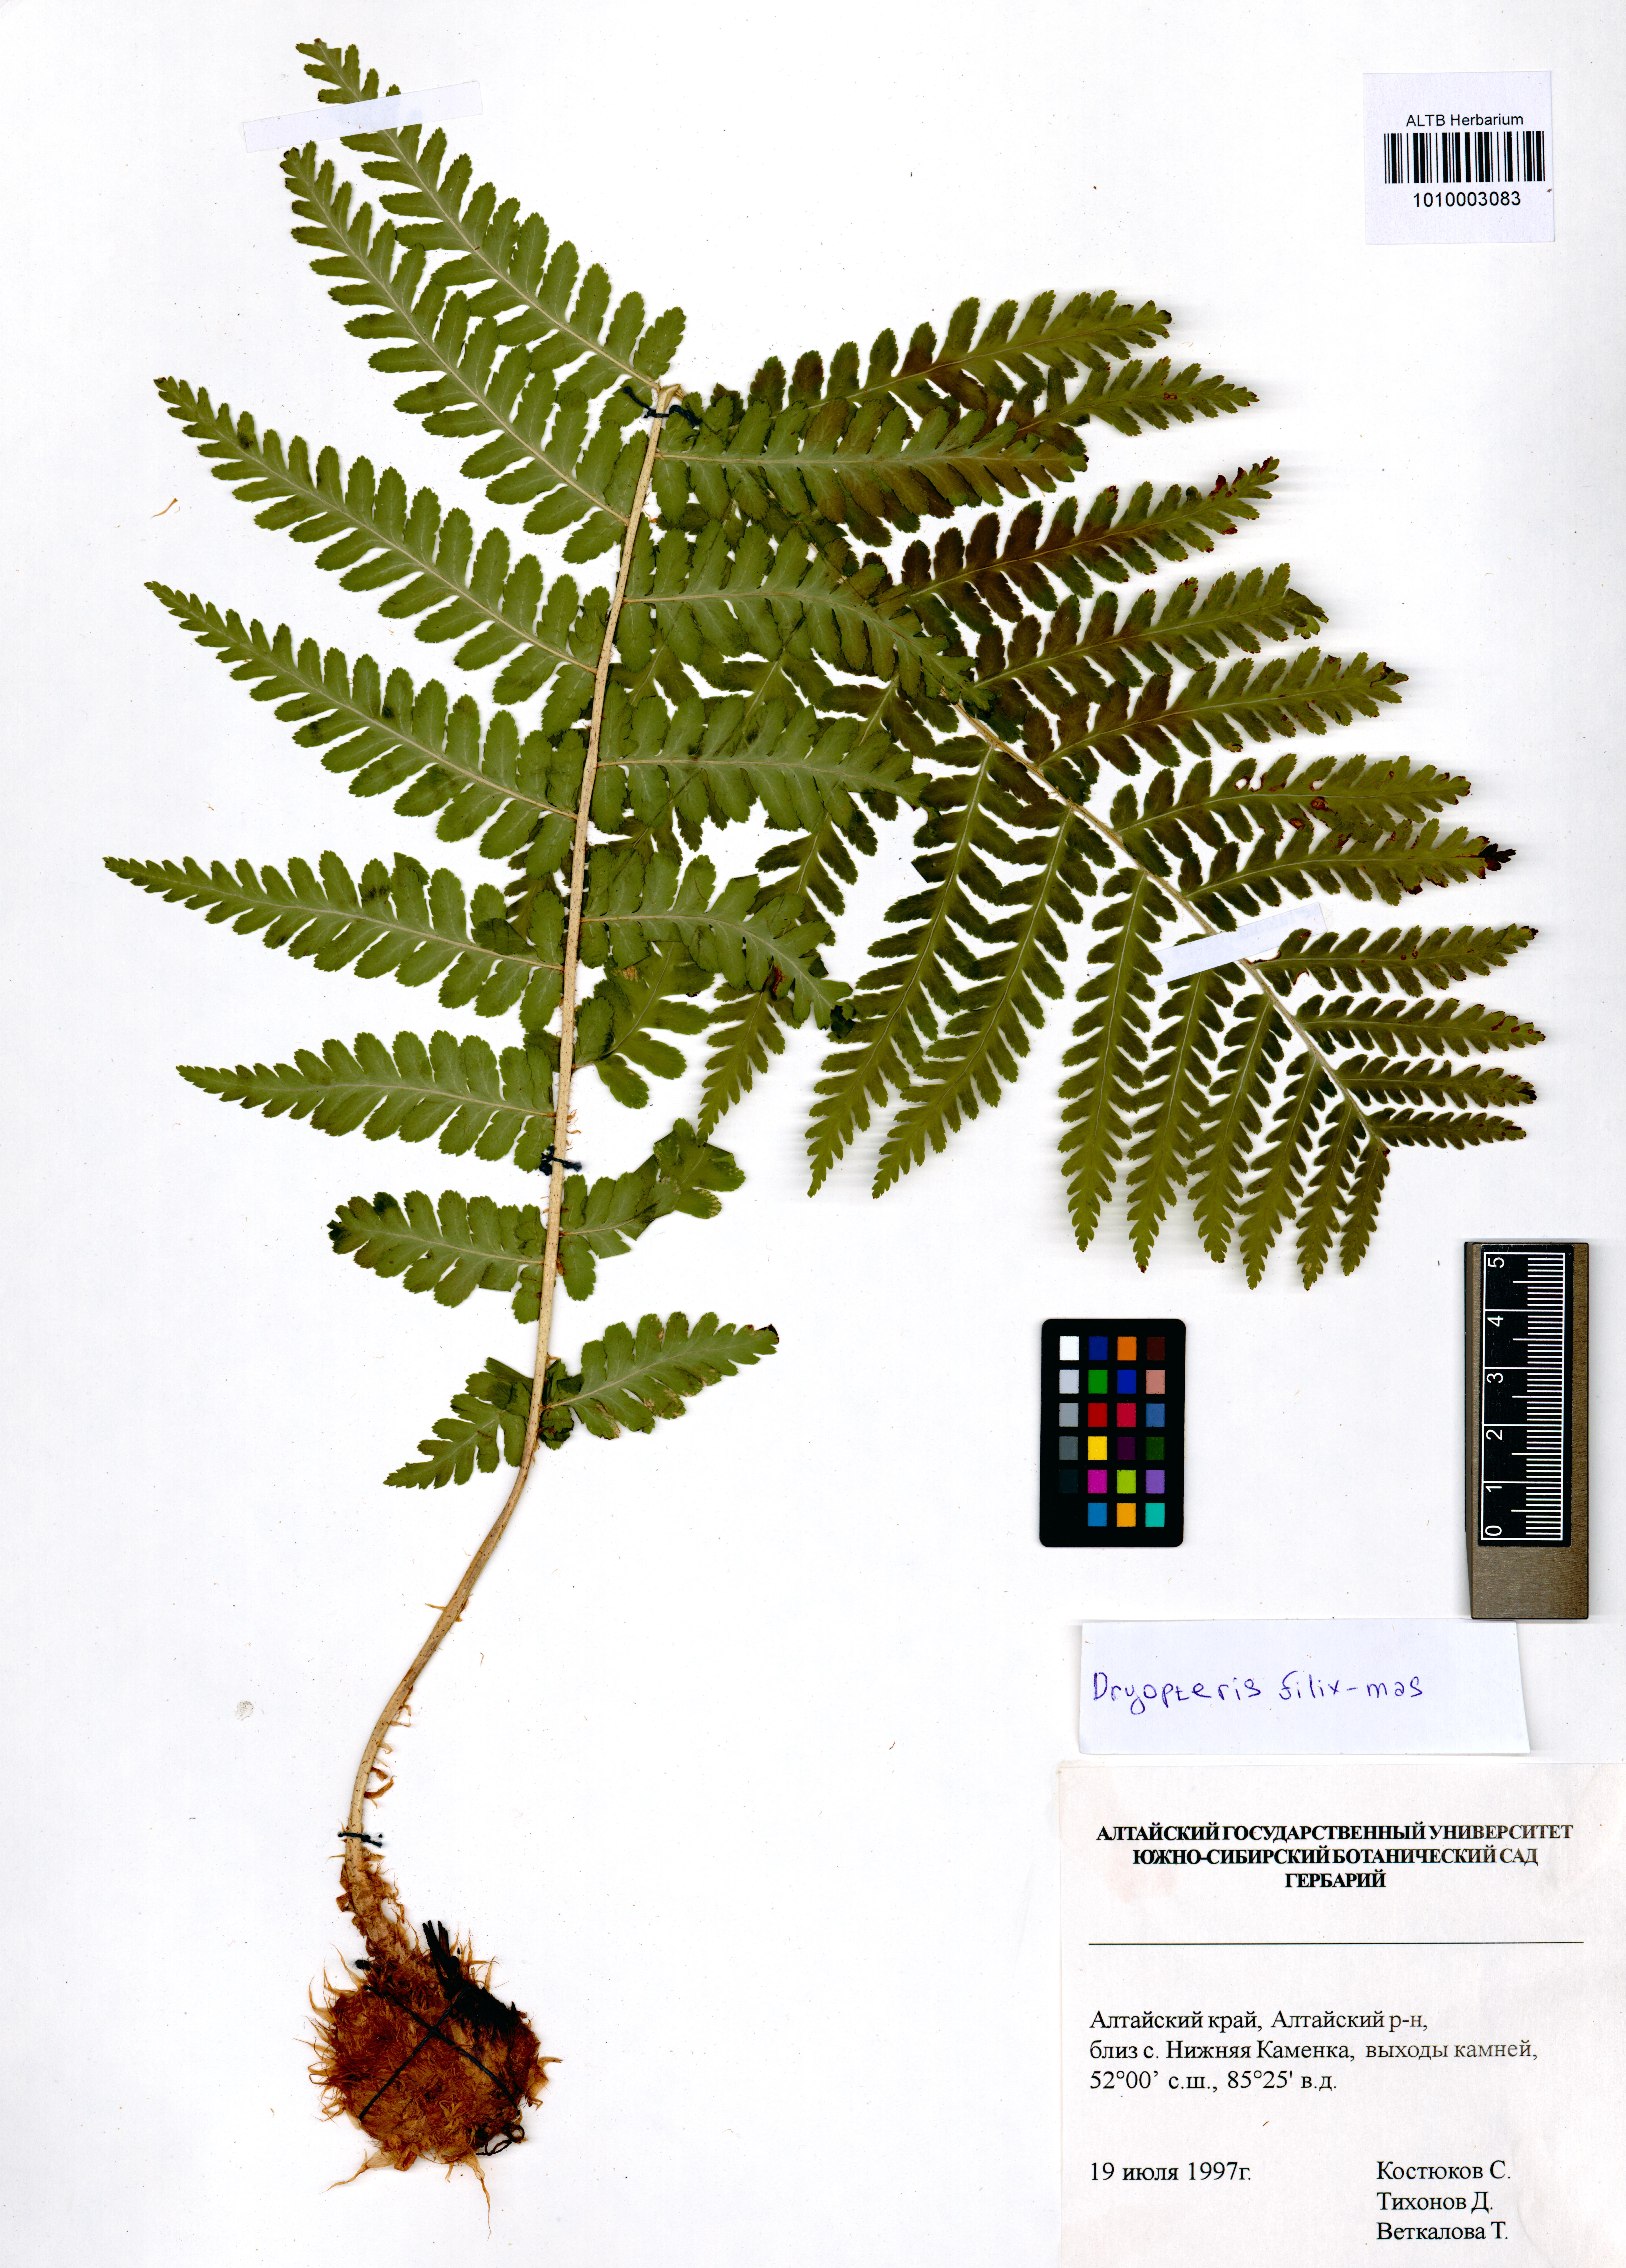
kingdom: Plantae
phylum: Tracheophyta
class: Polypodiopsida
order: Polypodiales
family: Dryopteridaceae
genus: Dryopteris
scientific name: Dryopteris filix-mas
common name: Male fern
